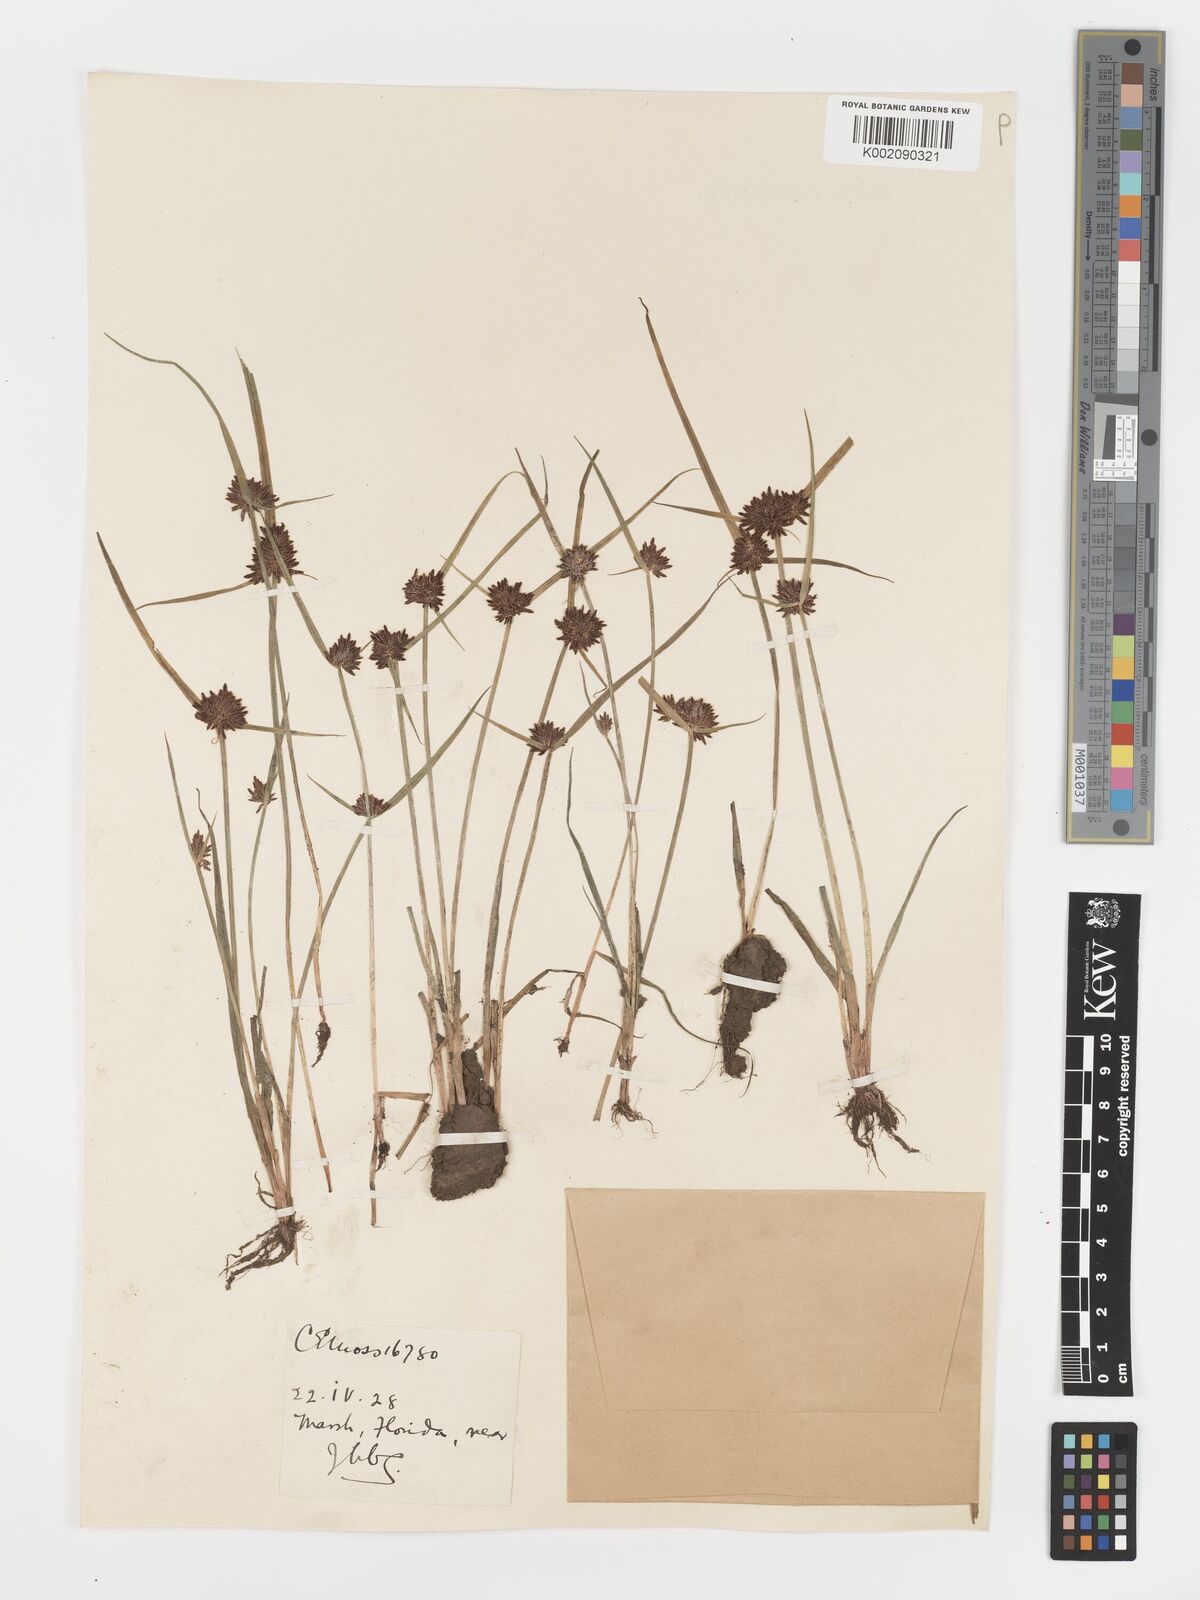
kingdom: Plantae
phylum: Tracheophyta
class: Liliopsida
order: Poales
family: Cyperaceae
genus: Cyperus
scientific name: Cyperus difformis
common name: Variable flatsedge
